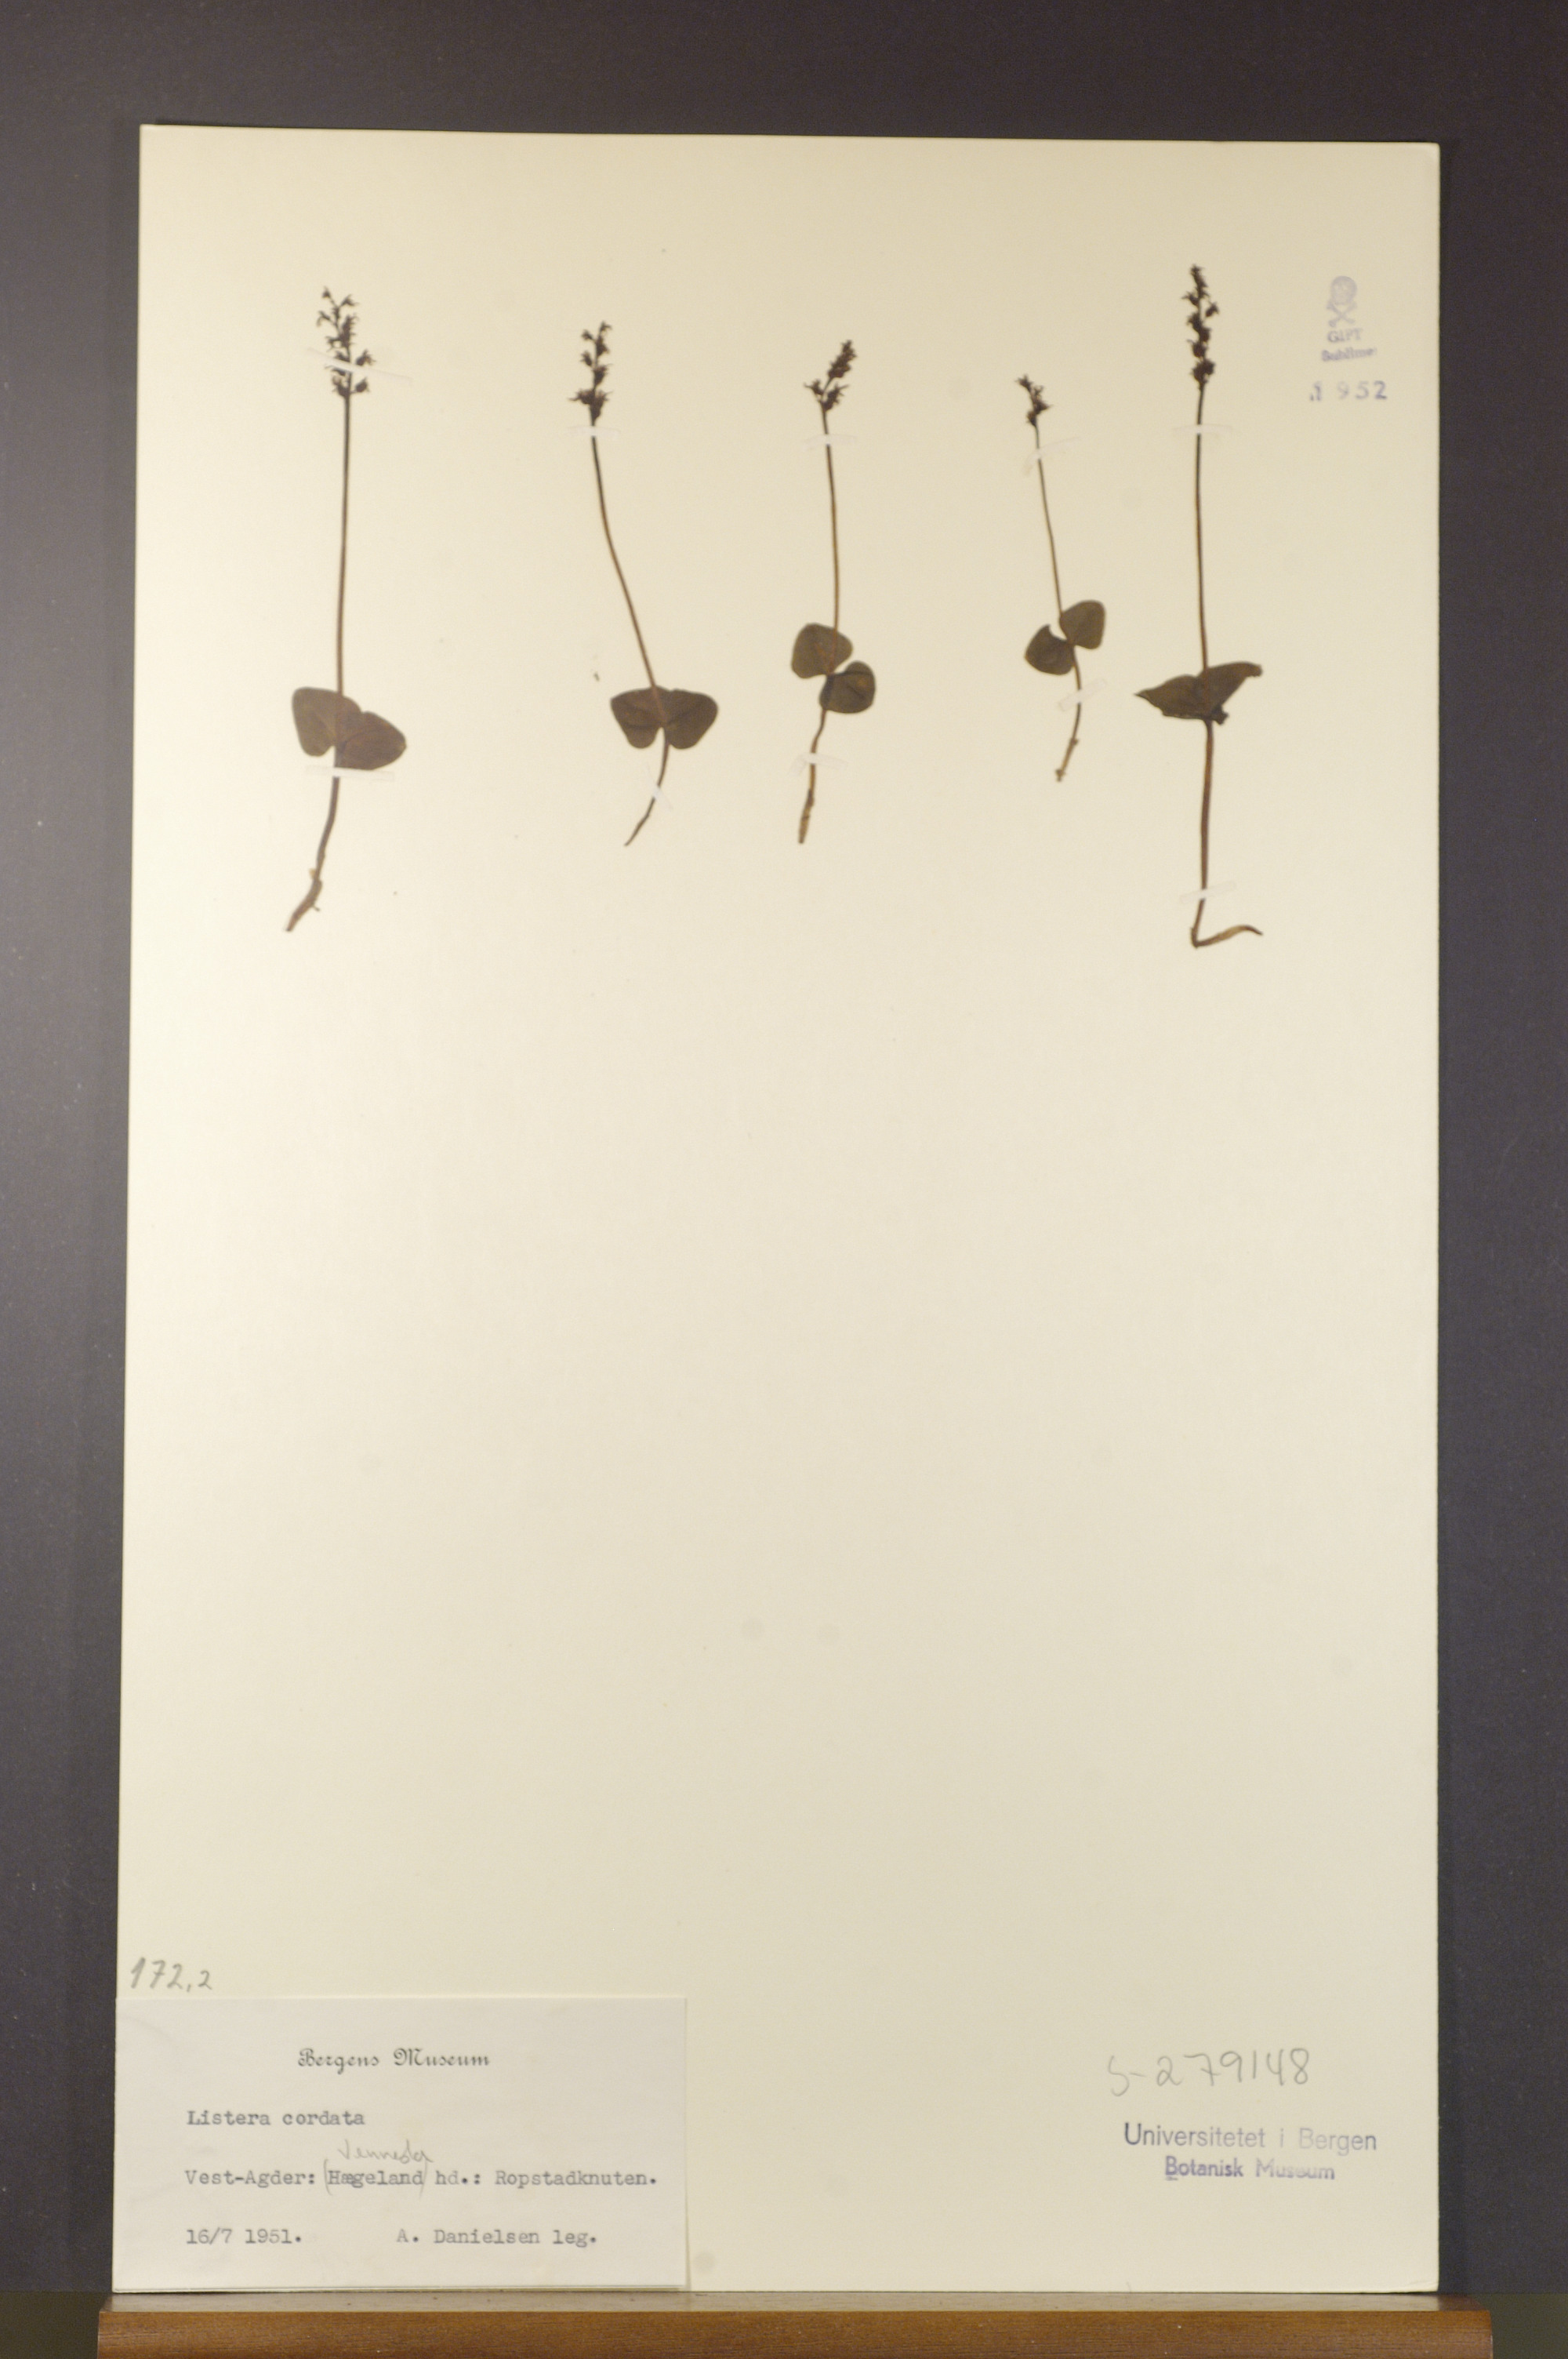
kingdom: Plantae
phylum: Tracheophyta
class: Liliopsida
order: Asparagales
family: Orchidaceae
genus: Neottia
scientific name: Neottia cordata
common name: Lesser twayblade
